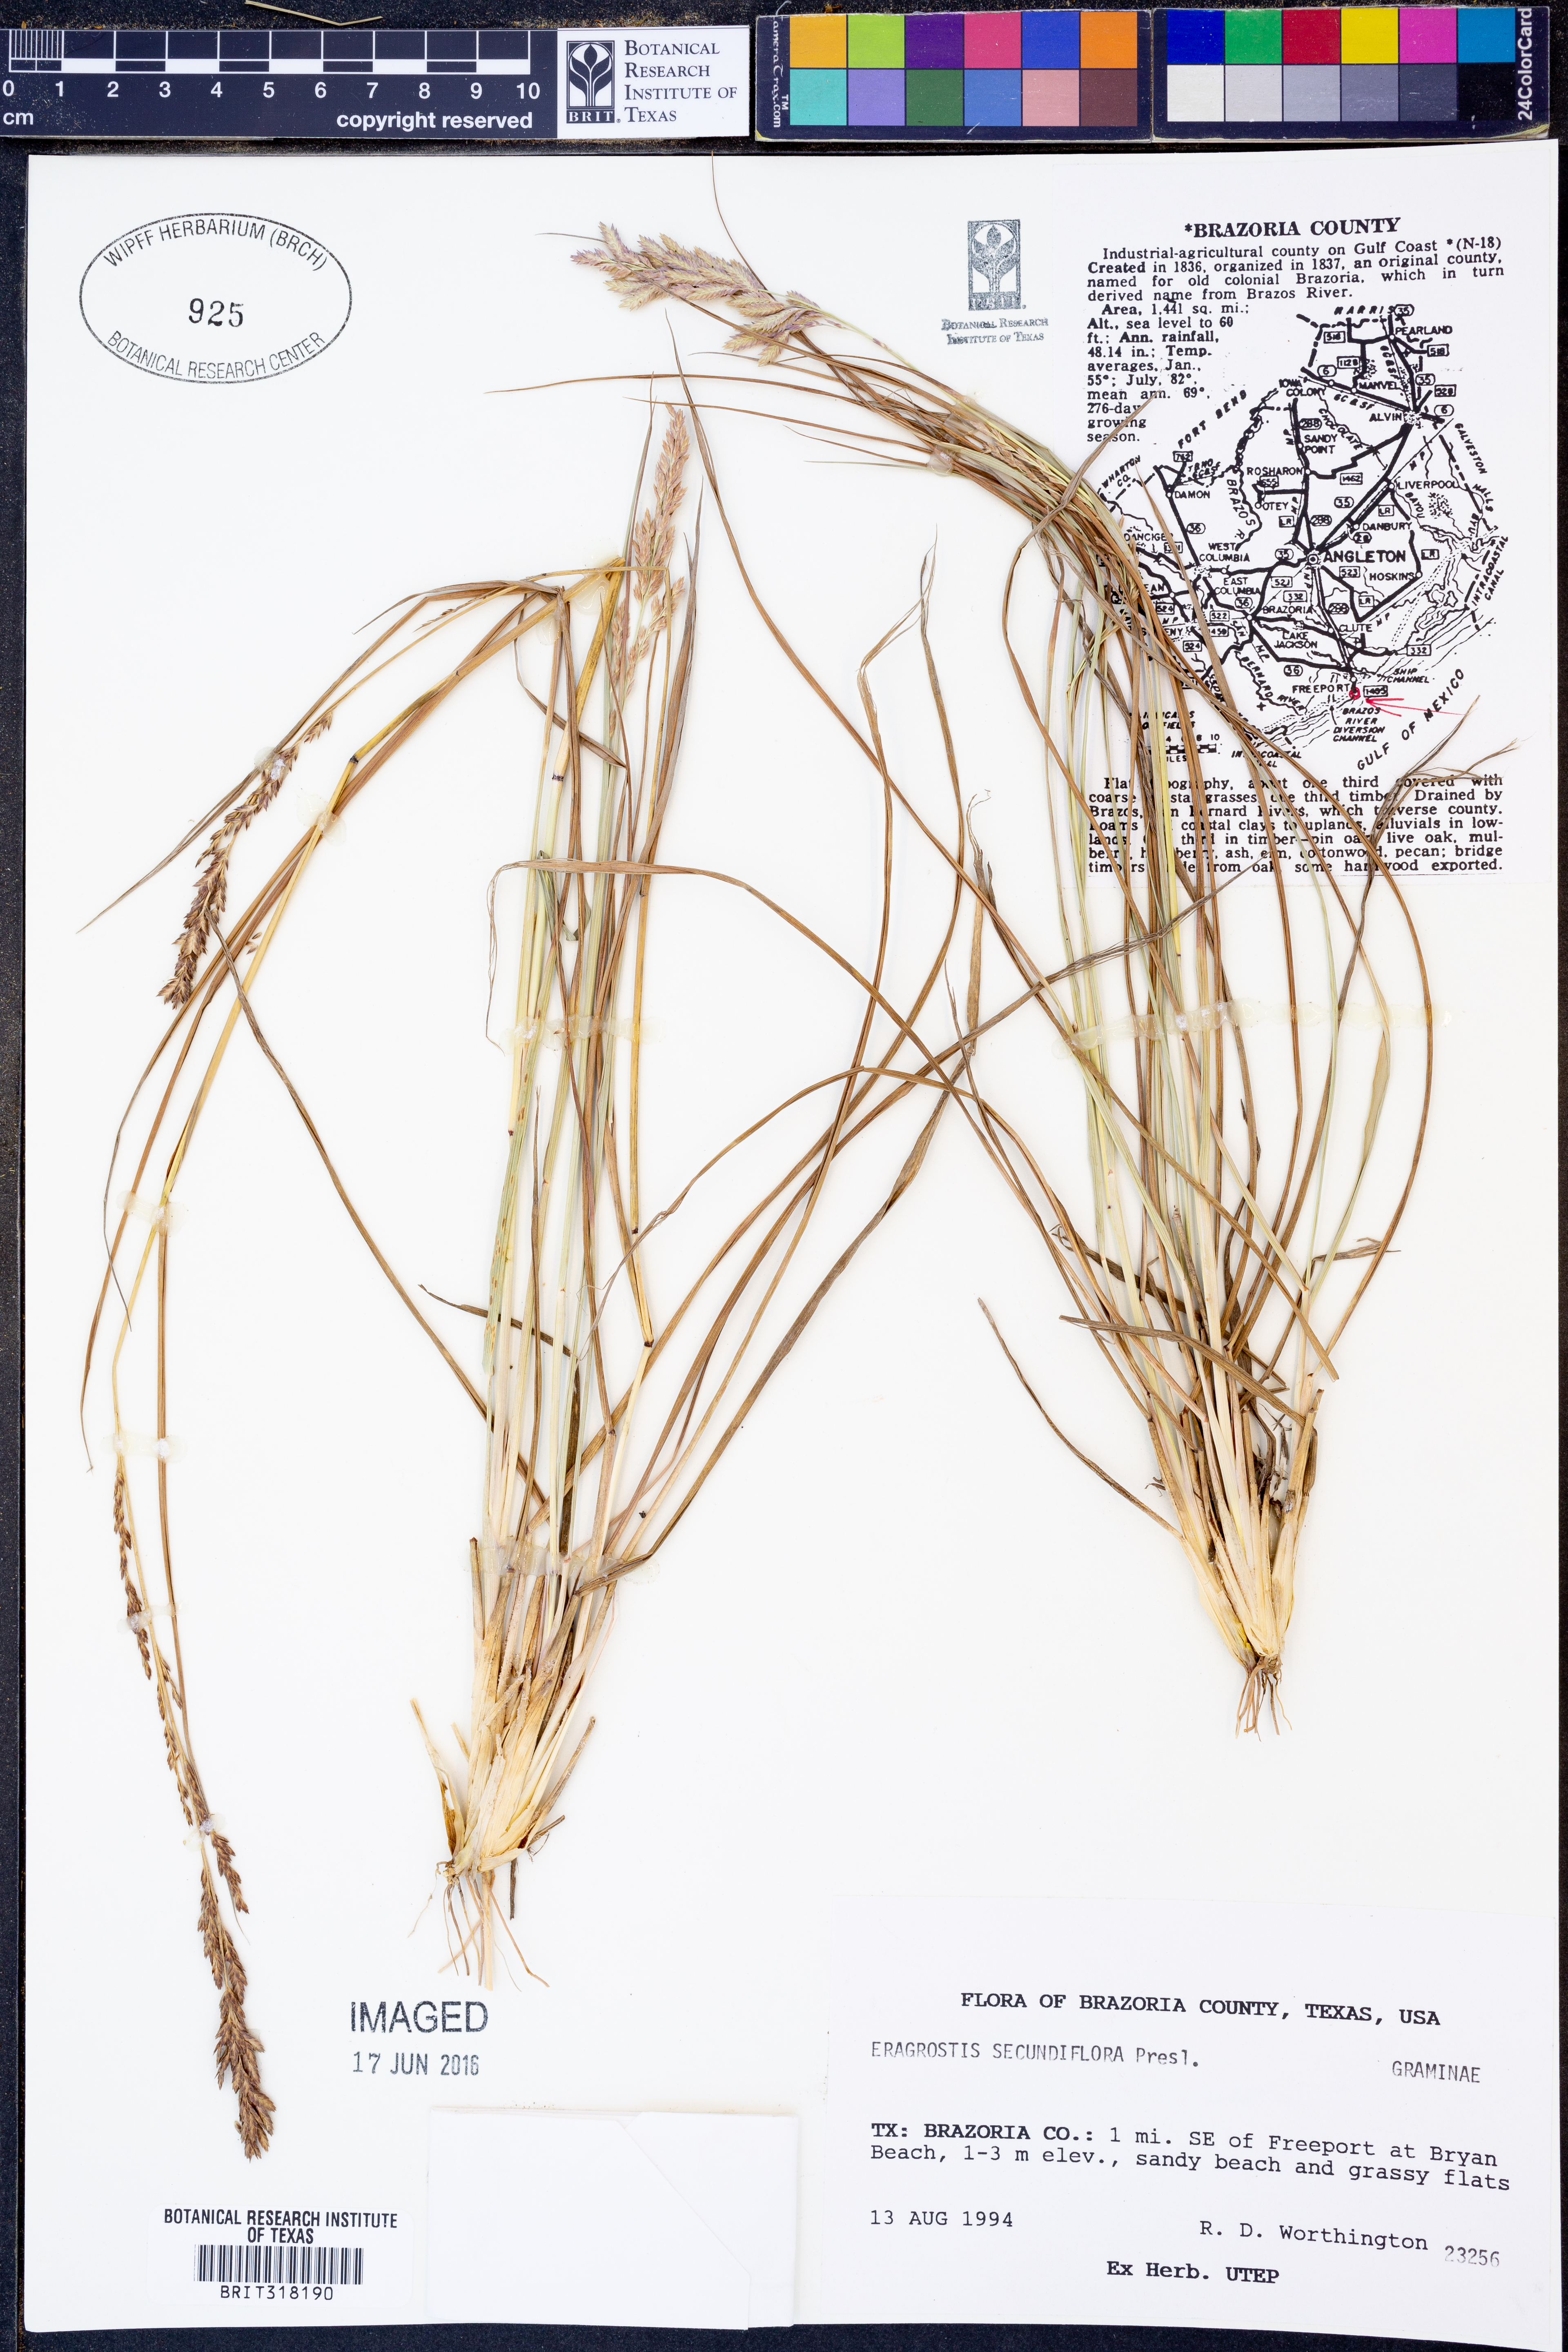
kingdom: Plantae
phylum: Tracheophyta
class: Liliopsida
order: Poales
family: Poaceae
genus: Eragrostis
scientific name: Eragrostis secundiflora
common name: Red love grass
